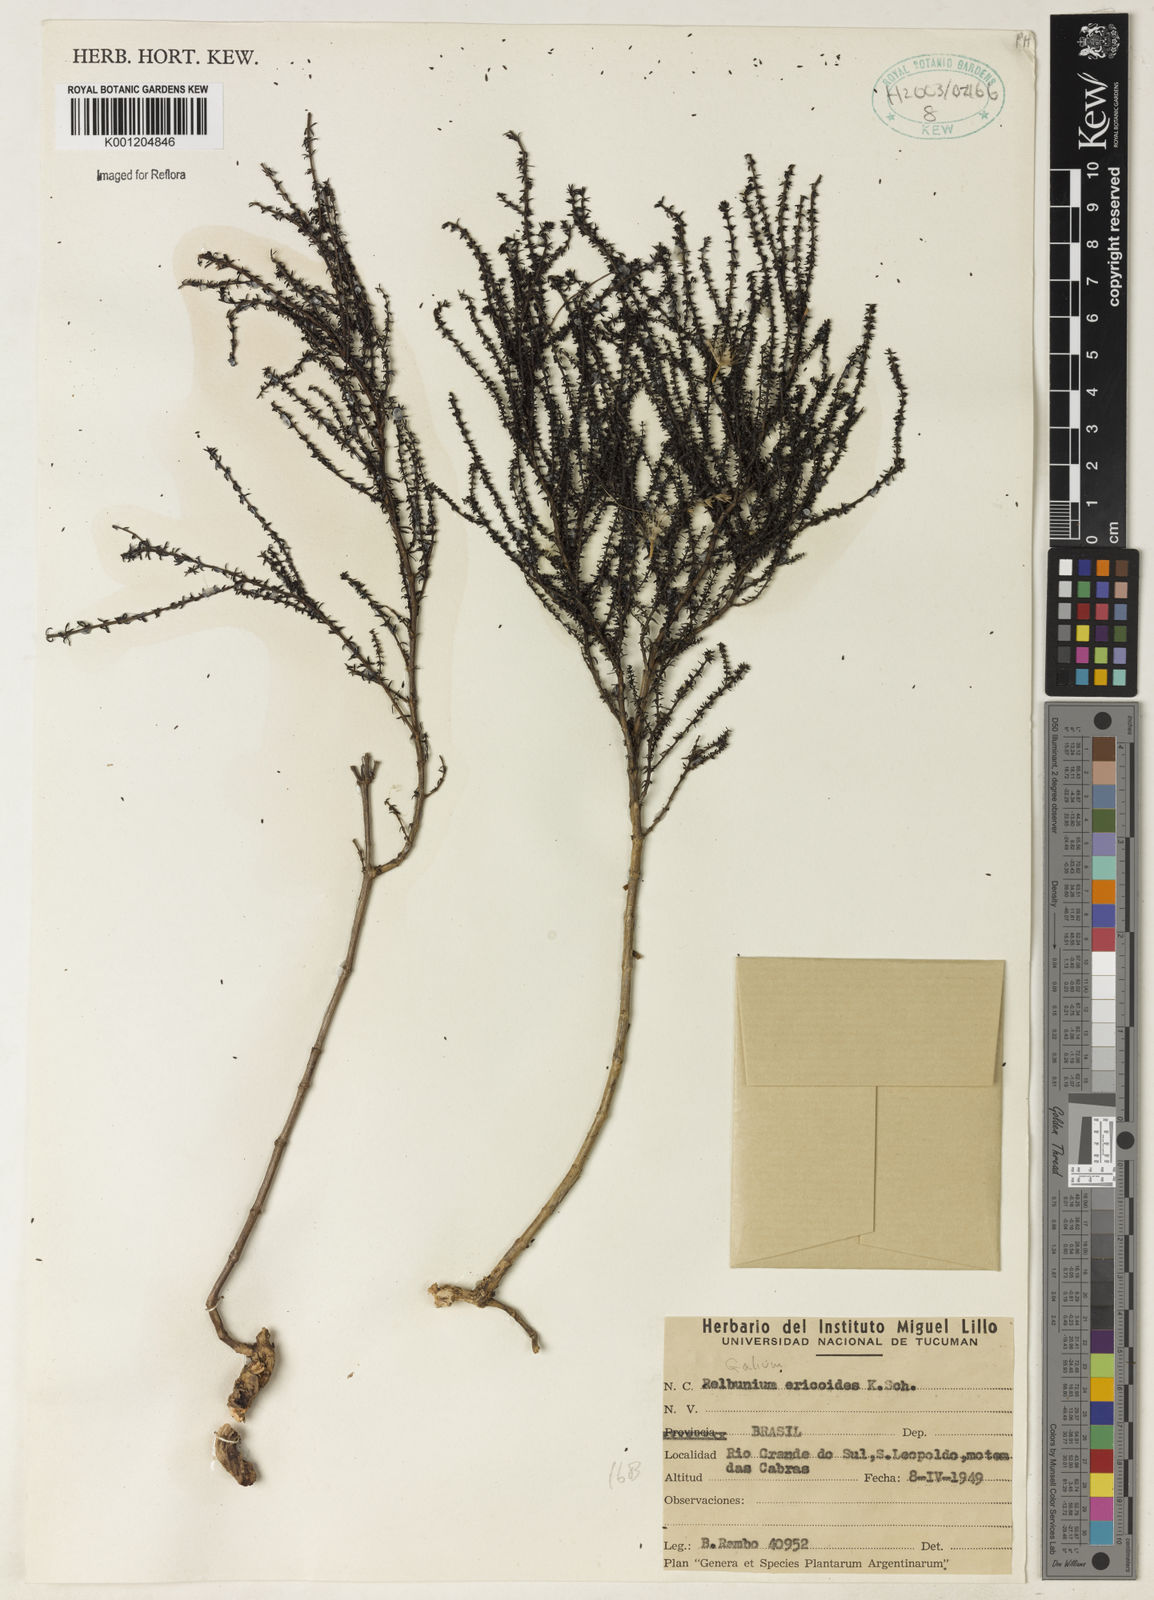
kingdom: Plantae
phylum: Tracheophyta
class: Magnoliopsida
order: Gentianales
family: Rubiaceae
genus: Galium
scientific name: Galium ericoides
